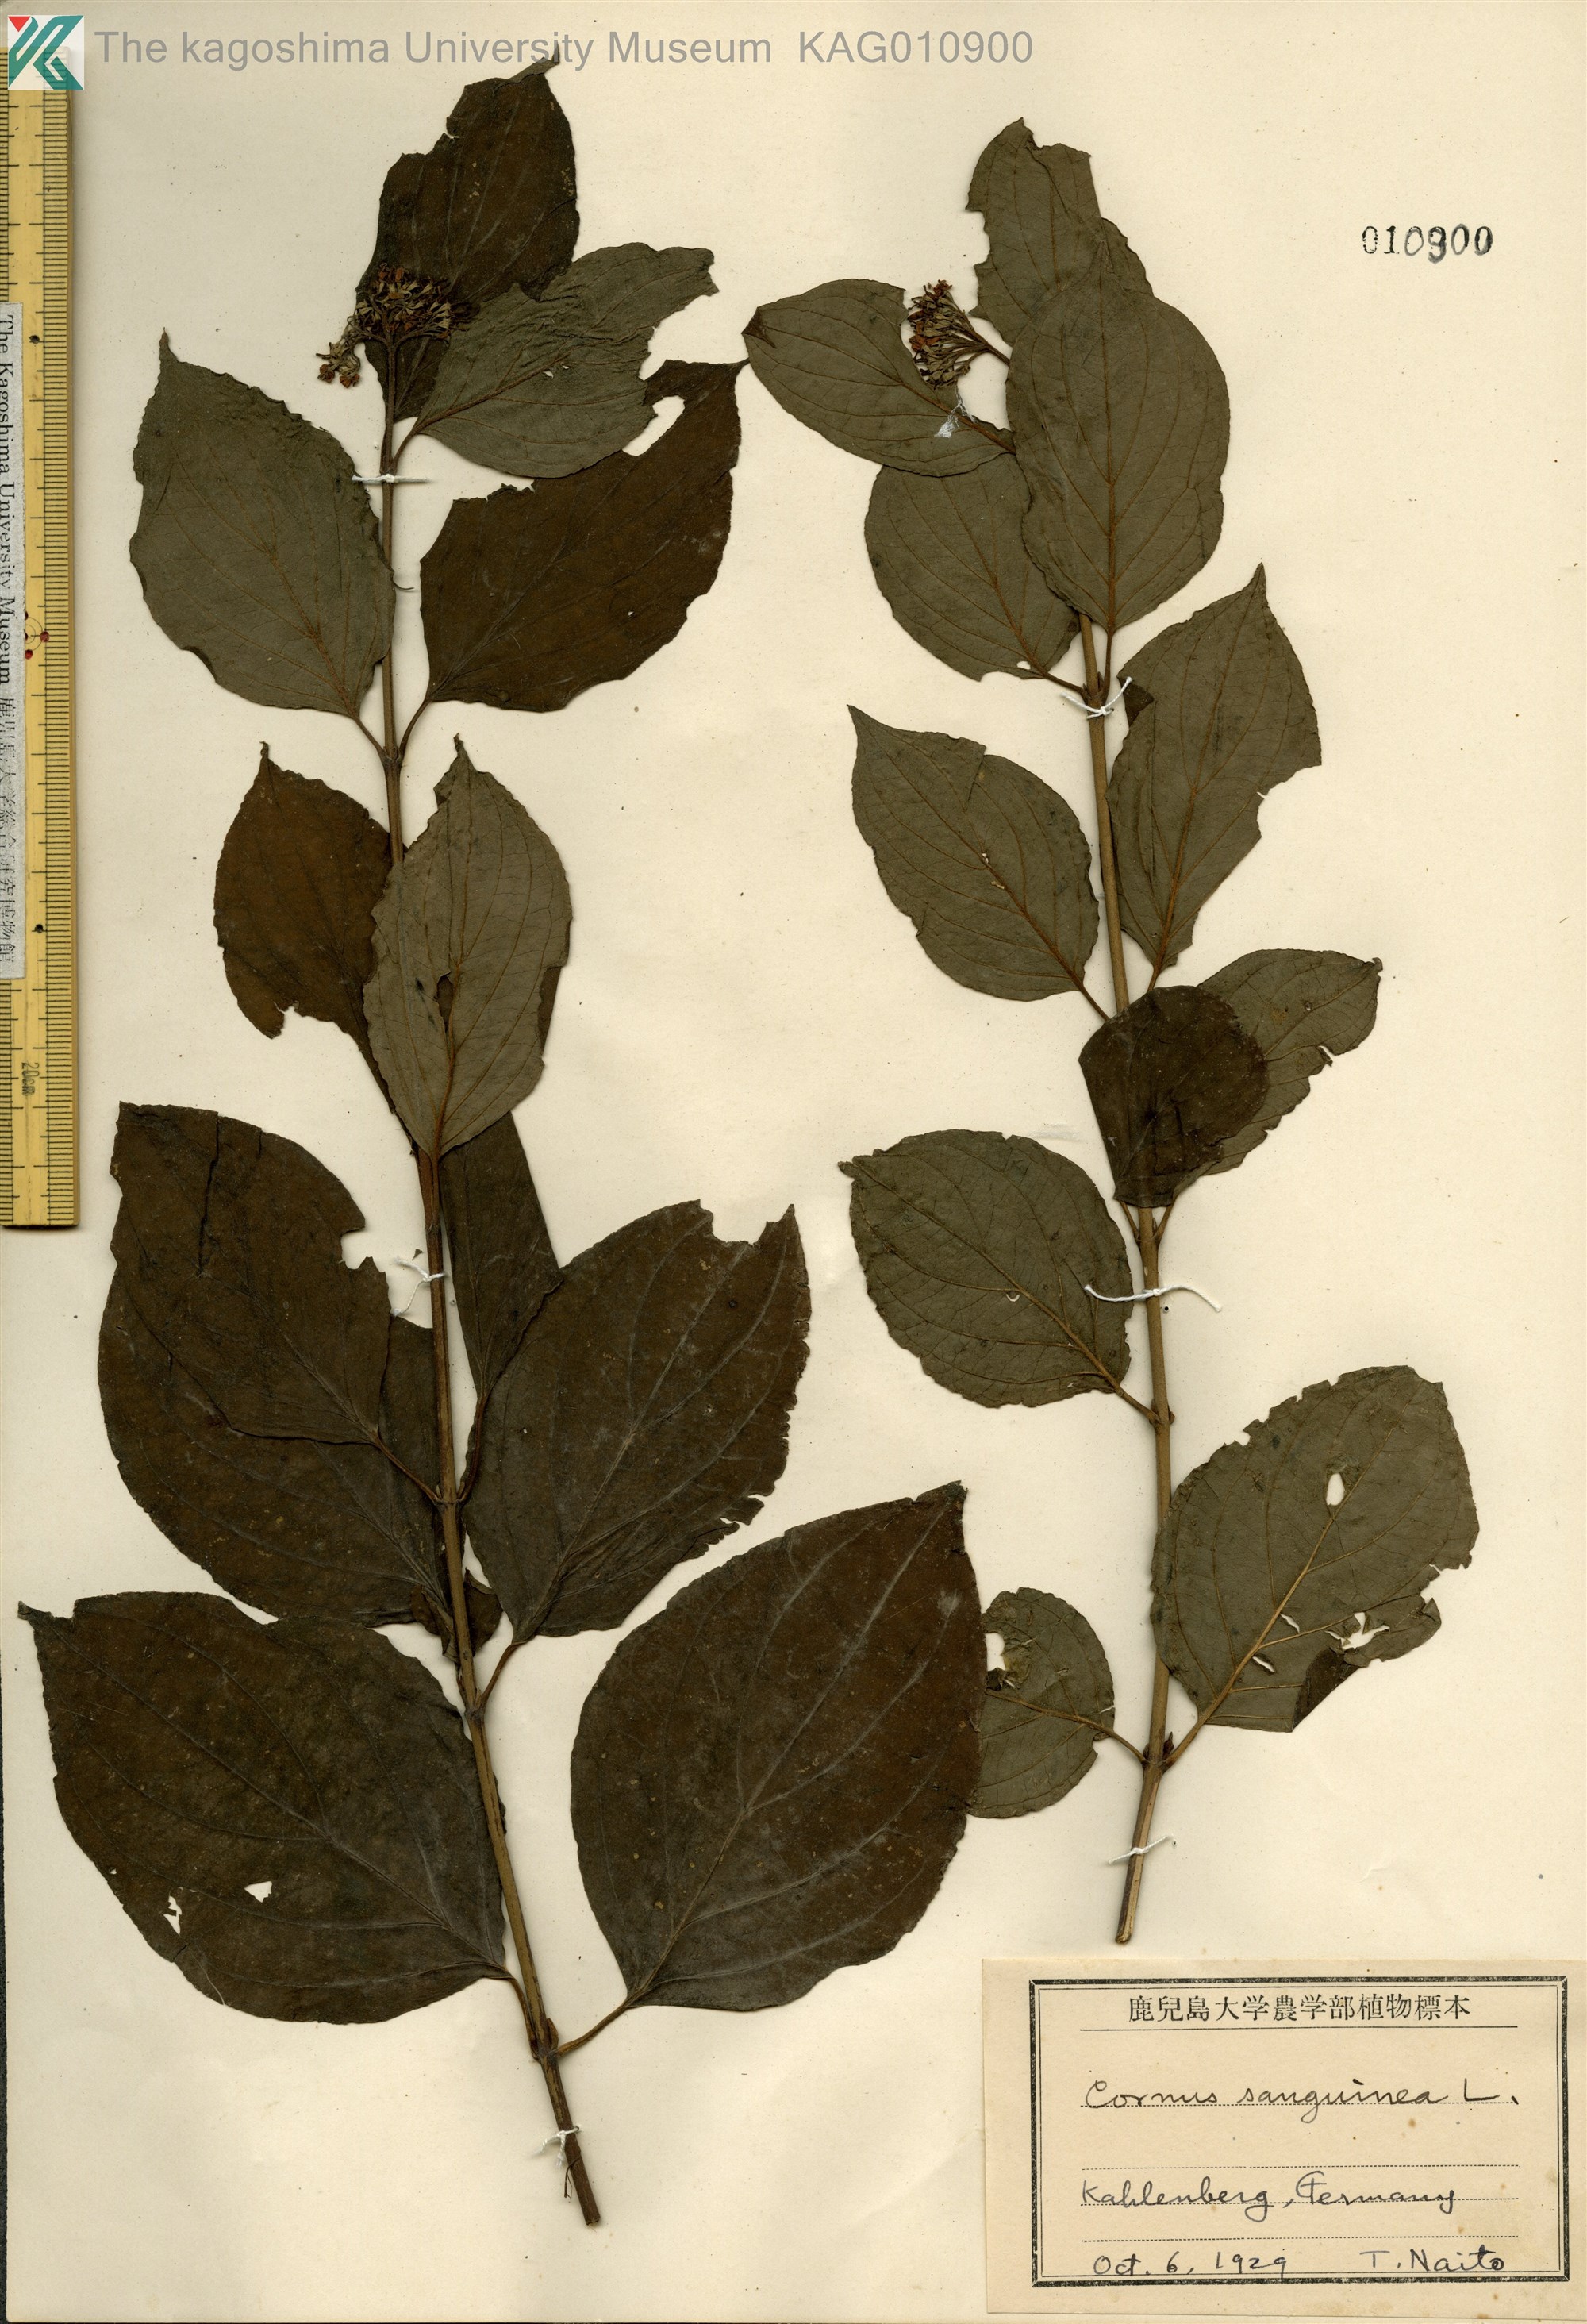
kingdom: Plantae
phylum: Tracheophyta
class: Magnoliopsida
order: Cornales
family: Cornaceae
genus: Cornus
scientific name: Cornus sanguinea
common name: Dogwood
